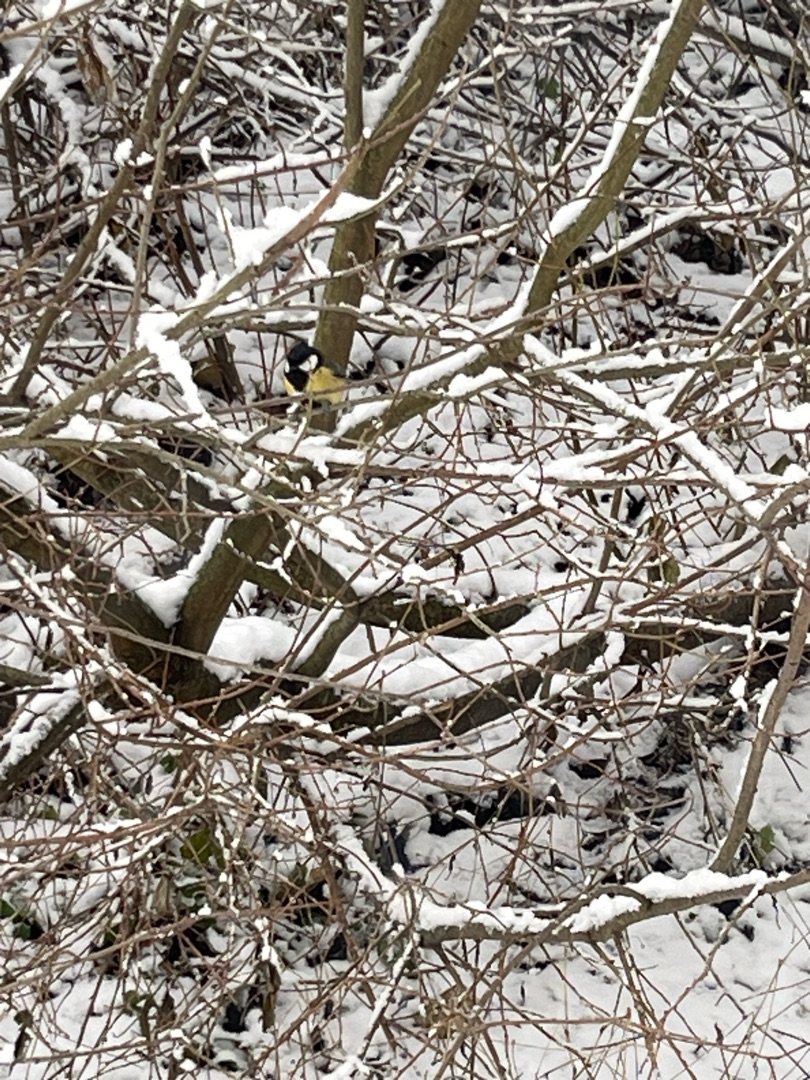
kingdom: Animalia
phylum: Chordata
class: Aves
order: Passeriformes
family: Paridae
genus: Parus
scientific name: Parus major
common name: Musvit
